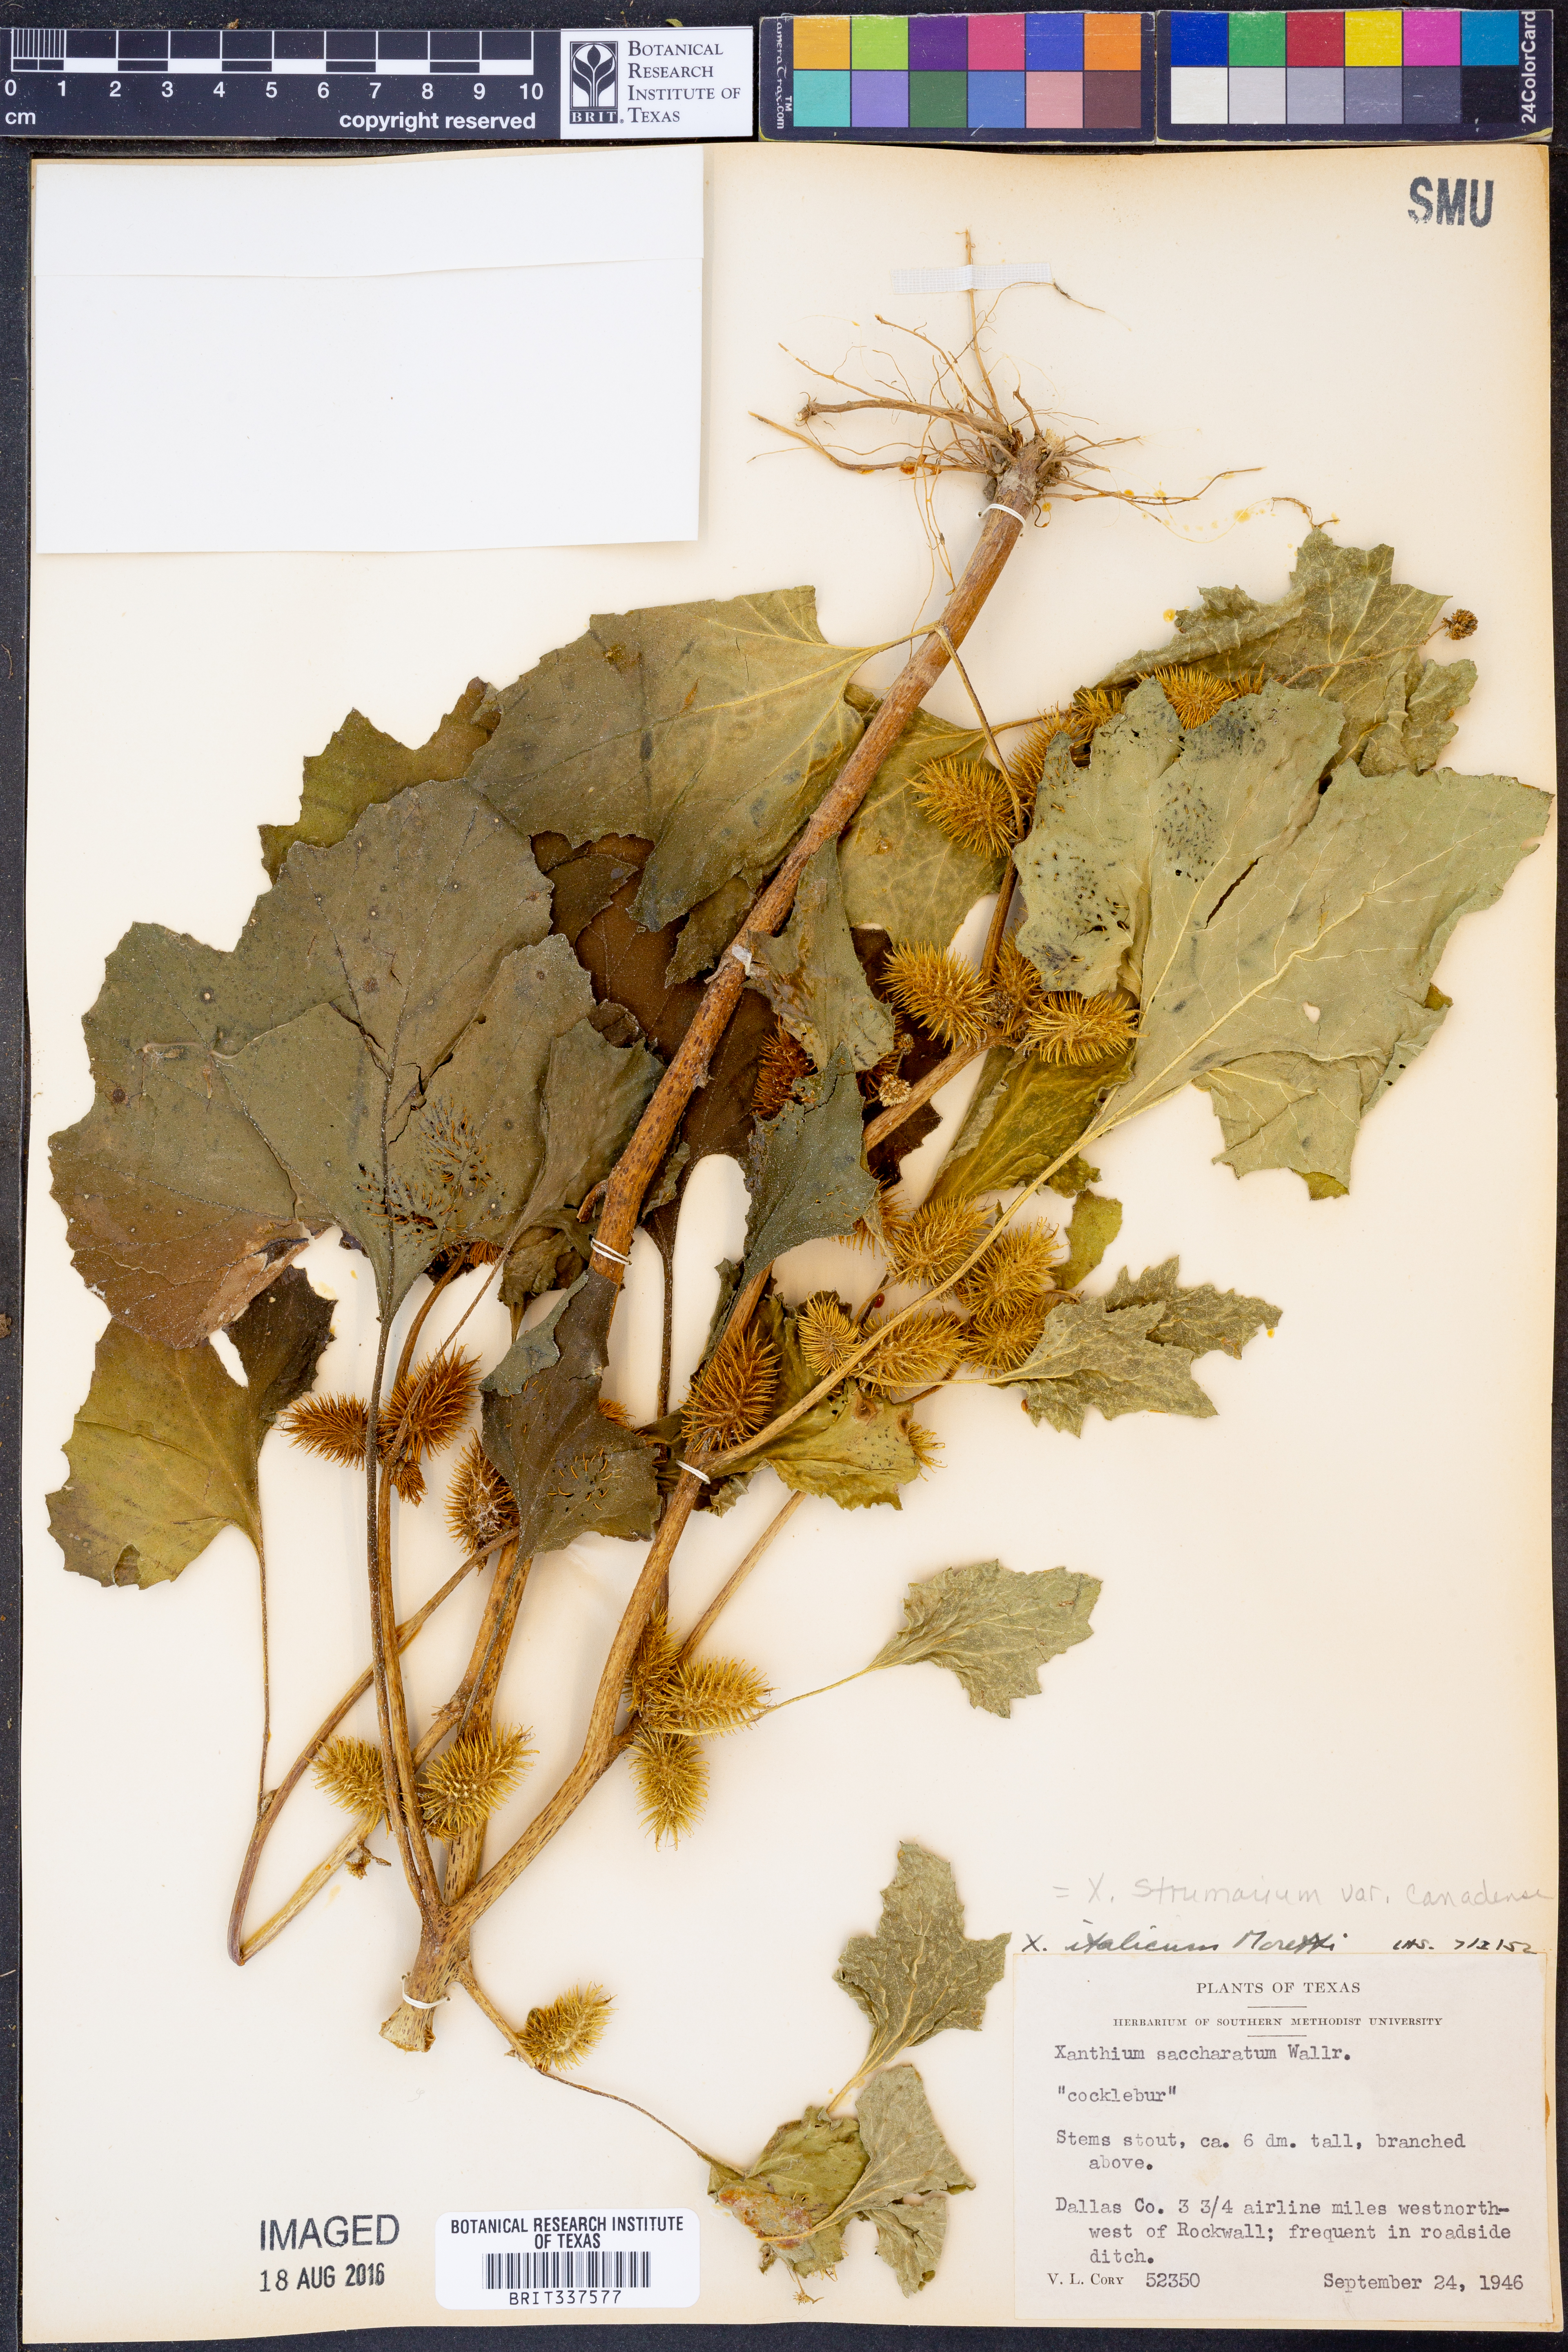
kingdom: Plantae
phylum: Tracheophyta
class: Magnoliopsida
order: Asterales
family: Asteraceae
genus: Xanthium
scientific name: Xanthium orientale
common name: Californian burr
